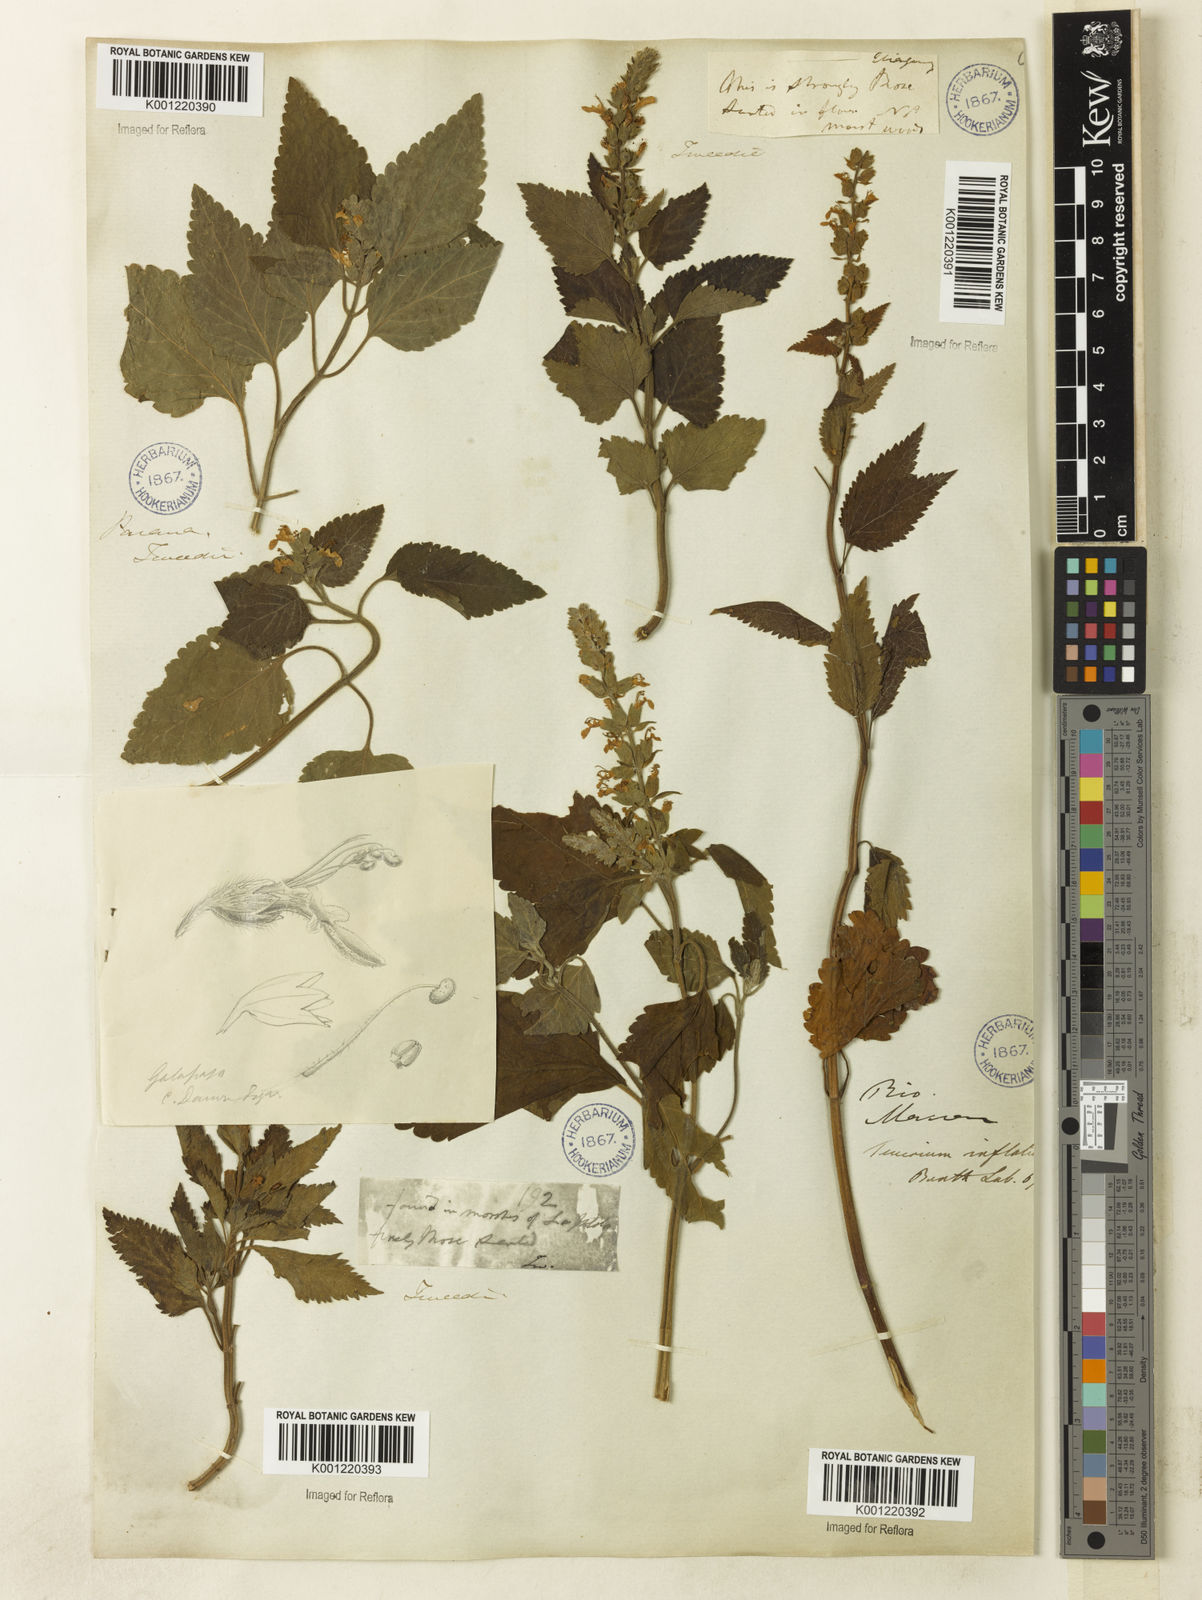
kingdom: Plantae
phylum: Tracheophyta
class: Magnoliopsida
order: Lamiales
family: Lamiaceae
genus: Teucrium
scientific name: Teucrium vesicarium
